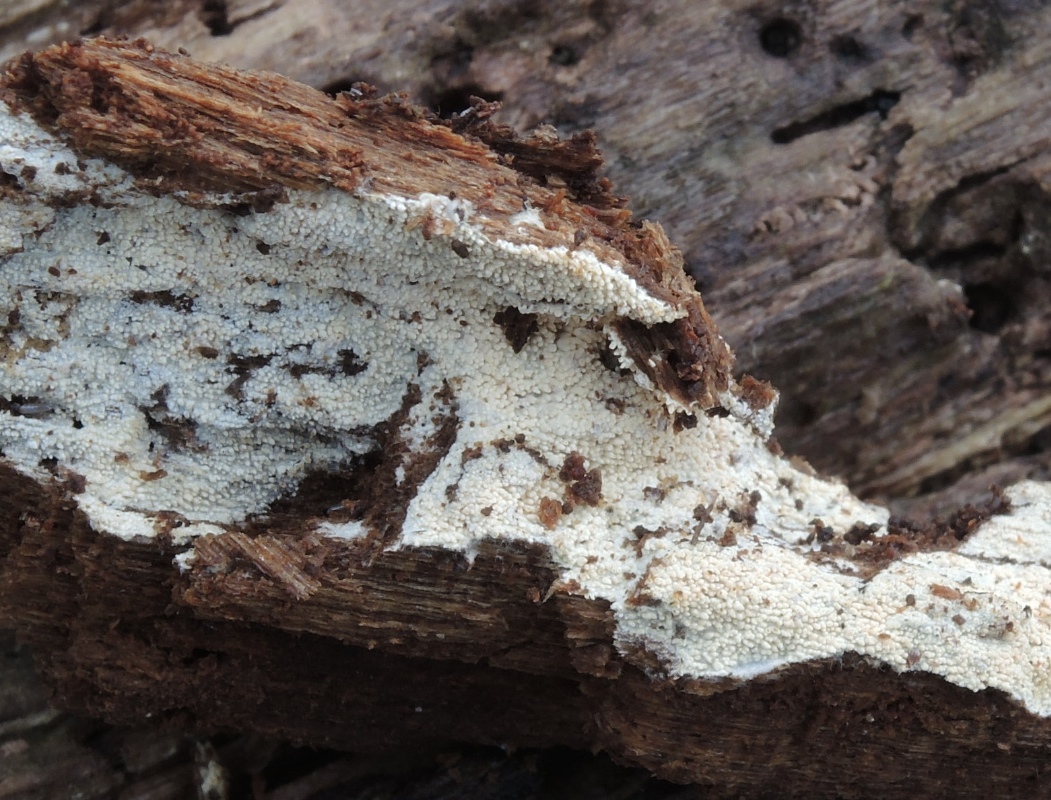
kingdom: Fungi
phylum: Basidiomycota
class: Agaricomycetes
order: Hymenochaetales
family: Hyphodontiaceae
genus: Hyphodontia
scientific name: Hyphodontia arguta
